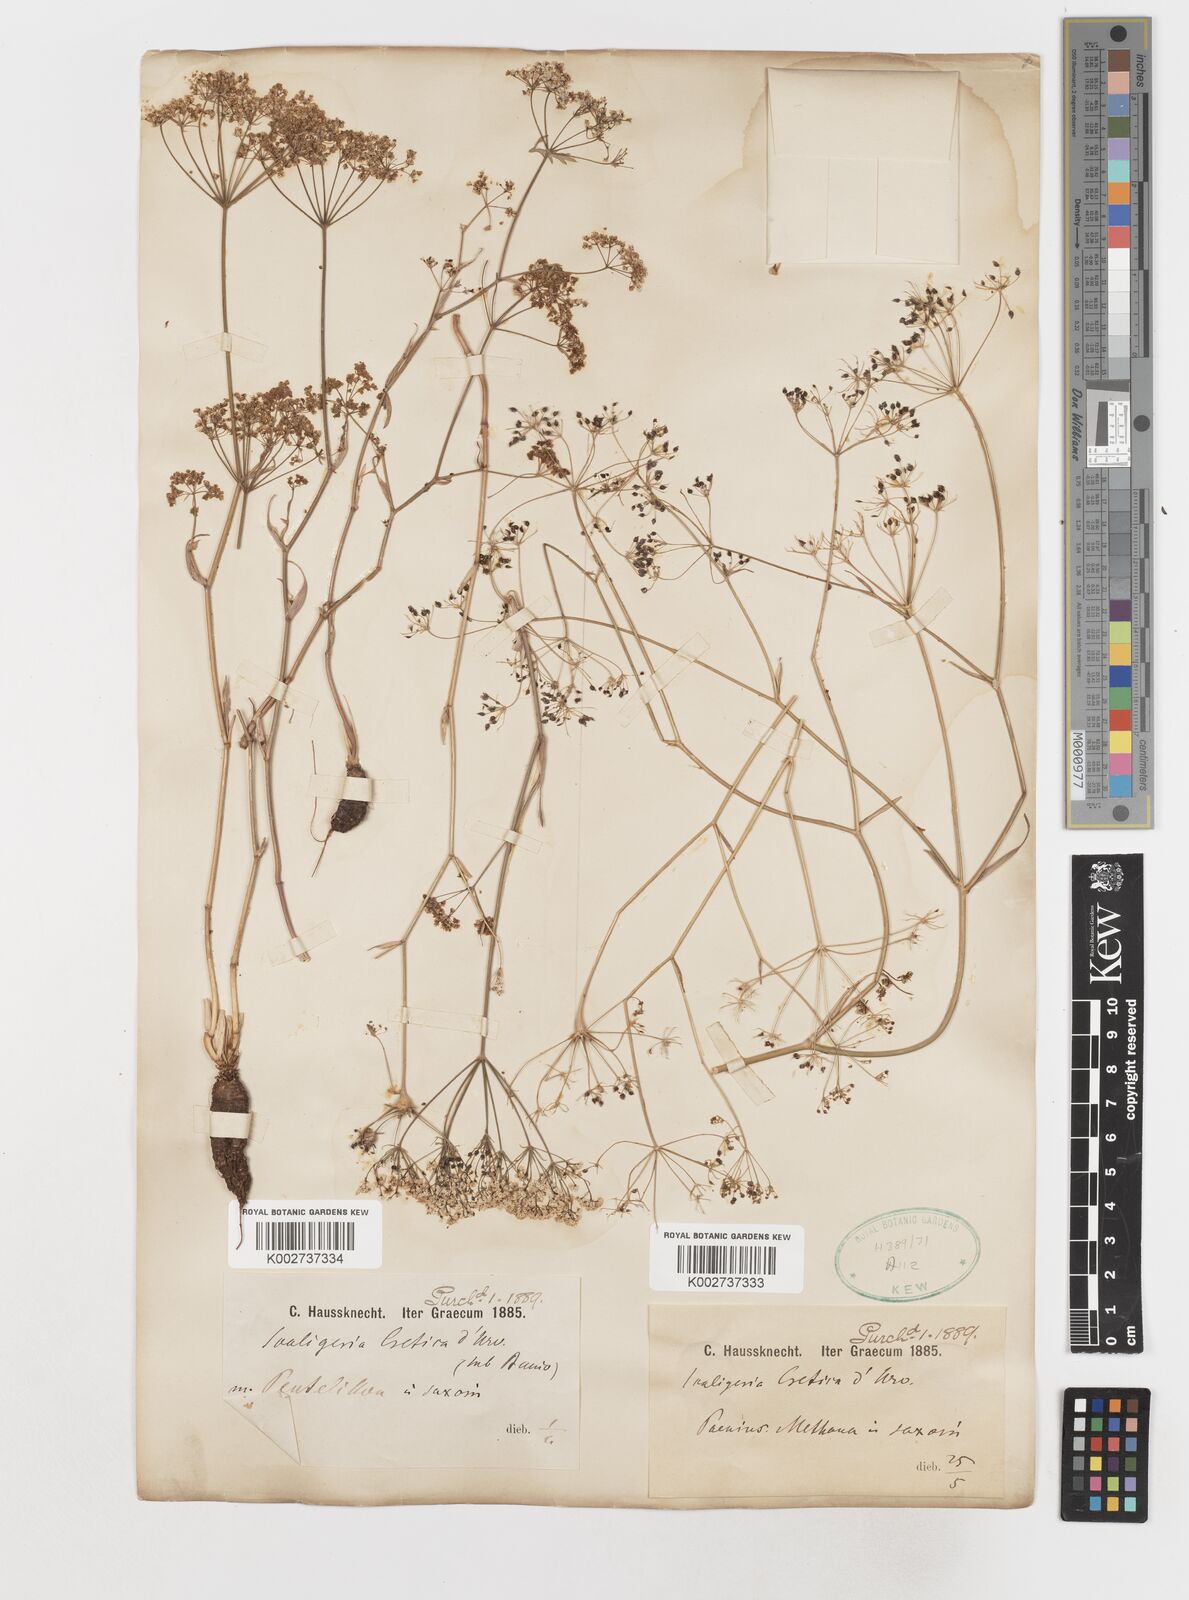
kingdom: Plantae
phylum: Tracheophyta
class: Magnoliopsida
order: Apiales
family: Apiaceae
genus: Scaligeria
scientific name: Scaligeria napiformis
